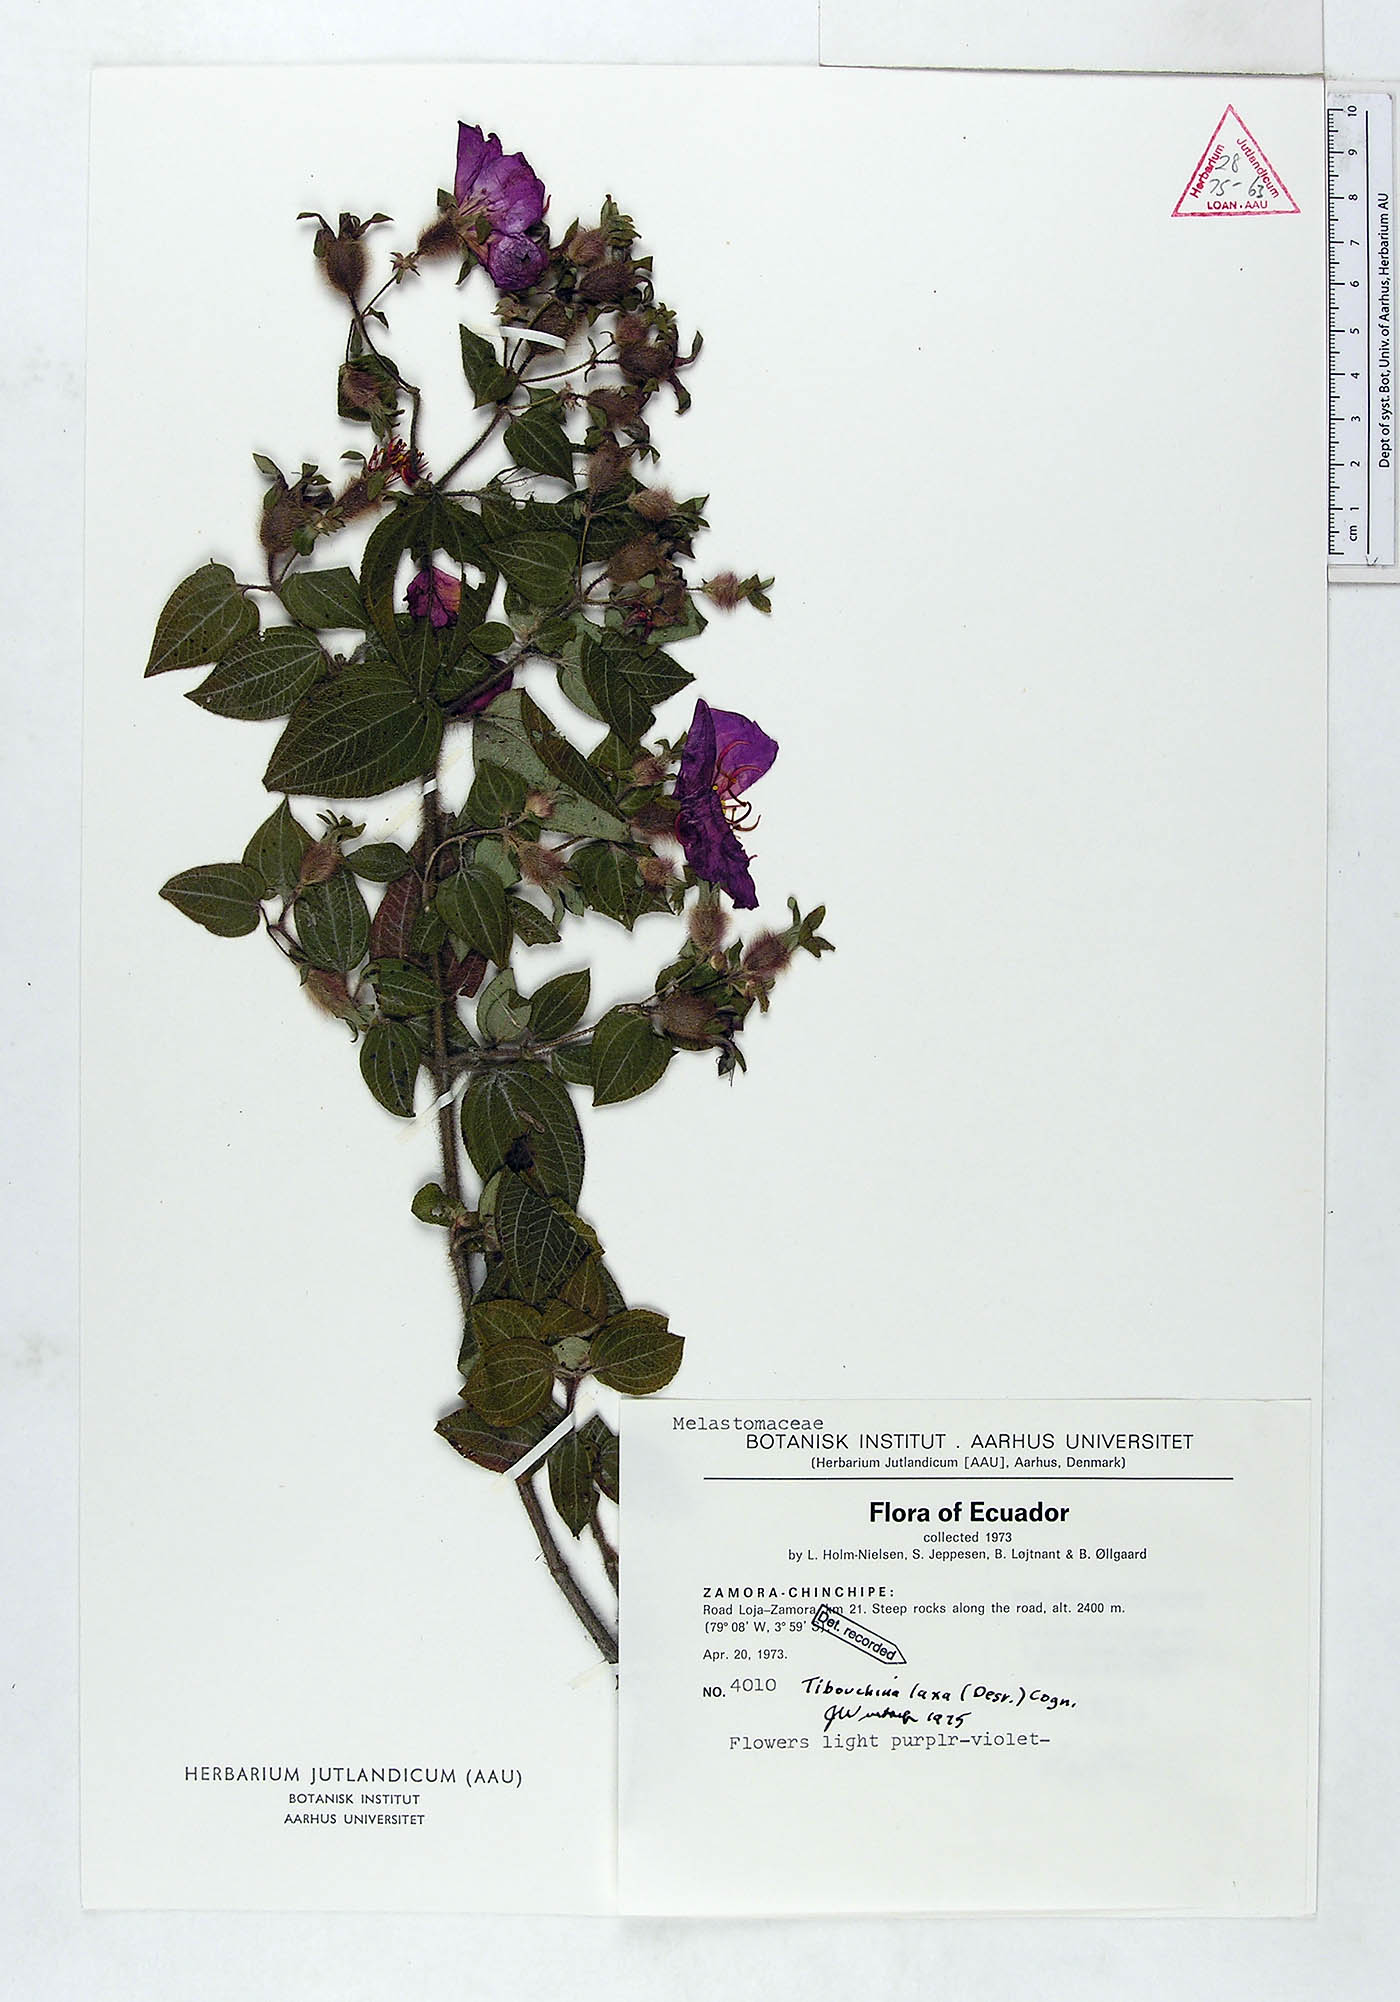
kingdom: Plantae
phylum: Tracheophyta
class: Magnoliopsida
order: Myrtales
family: Melastomataceae
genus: Chaetogastra
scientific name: Chaetogastra laxa
